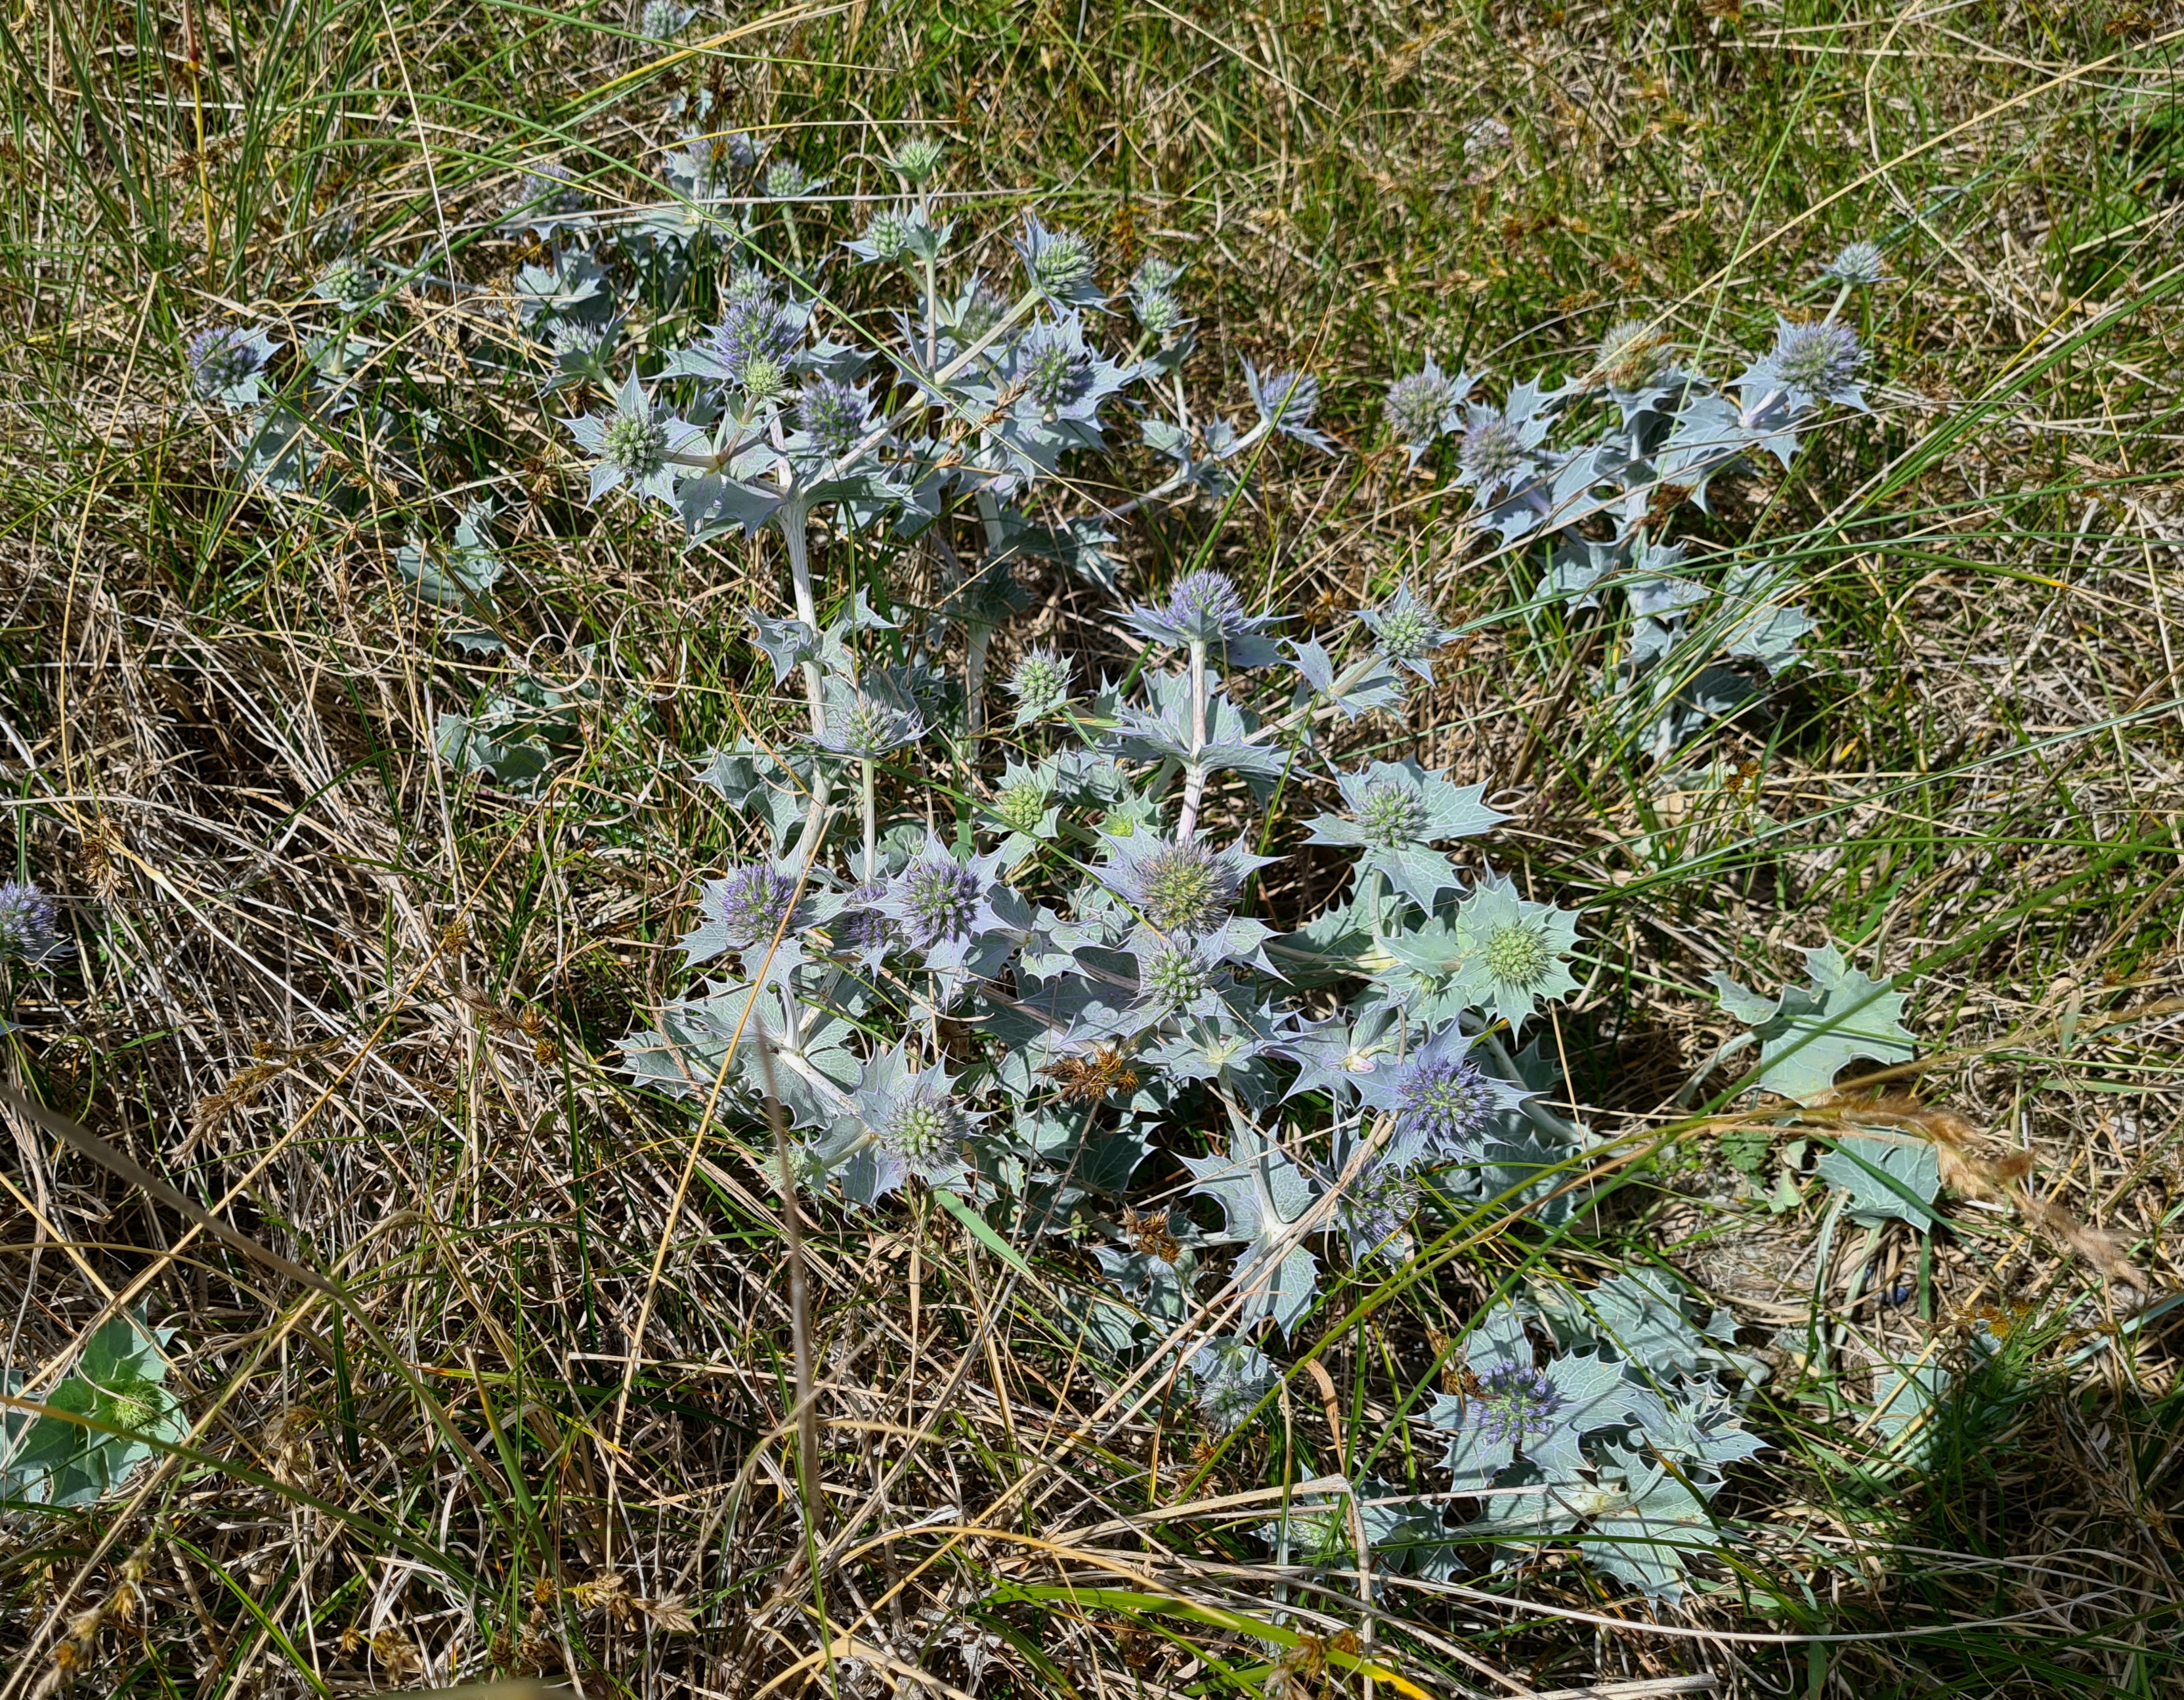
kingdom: Plantae
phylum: Tracheophyta
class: Magnoliopsida
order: Apiales
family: Apiaceae
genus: Eryngium
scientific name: Eryngium maritimum
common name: Strand-mandstro
